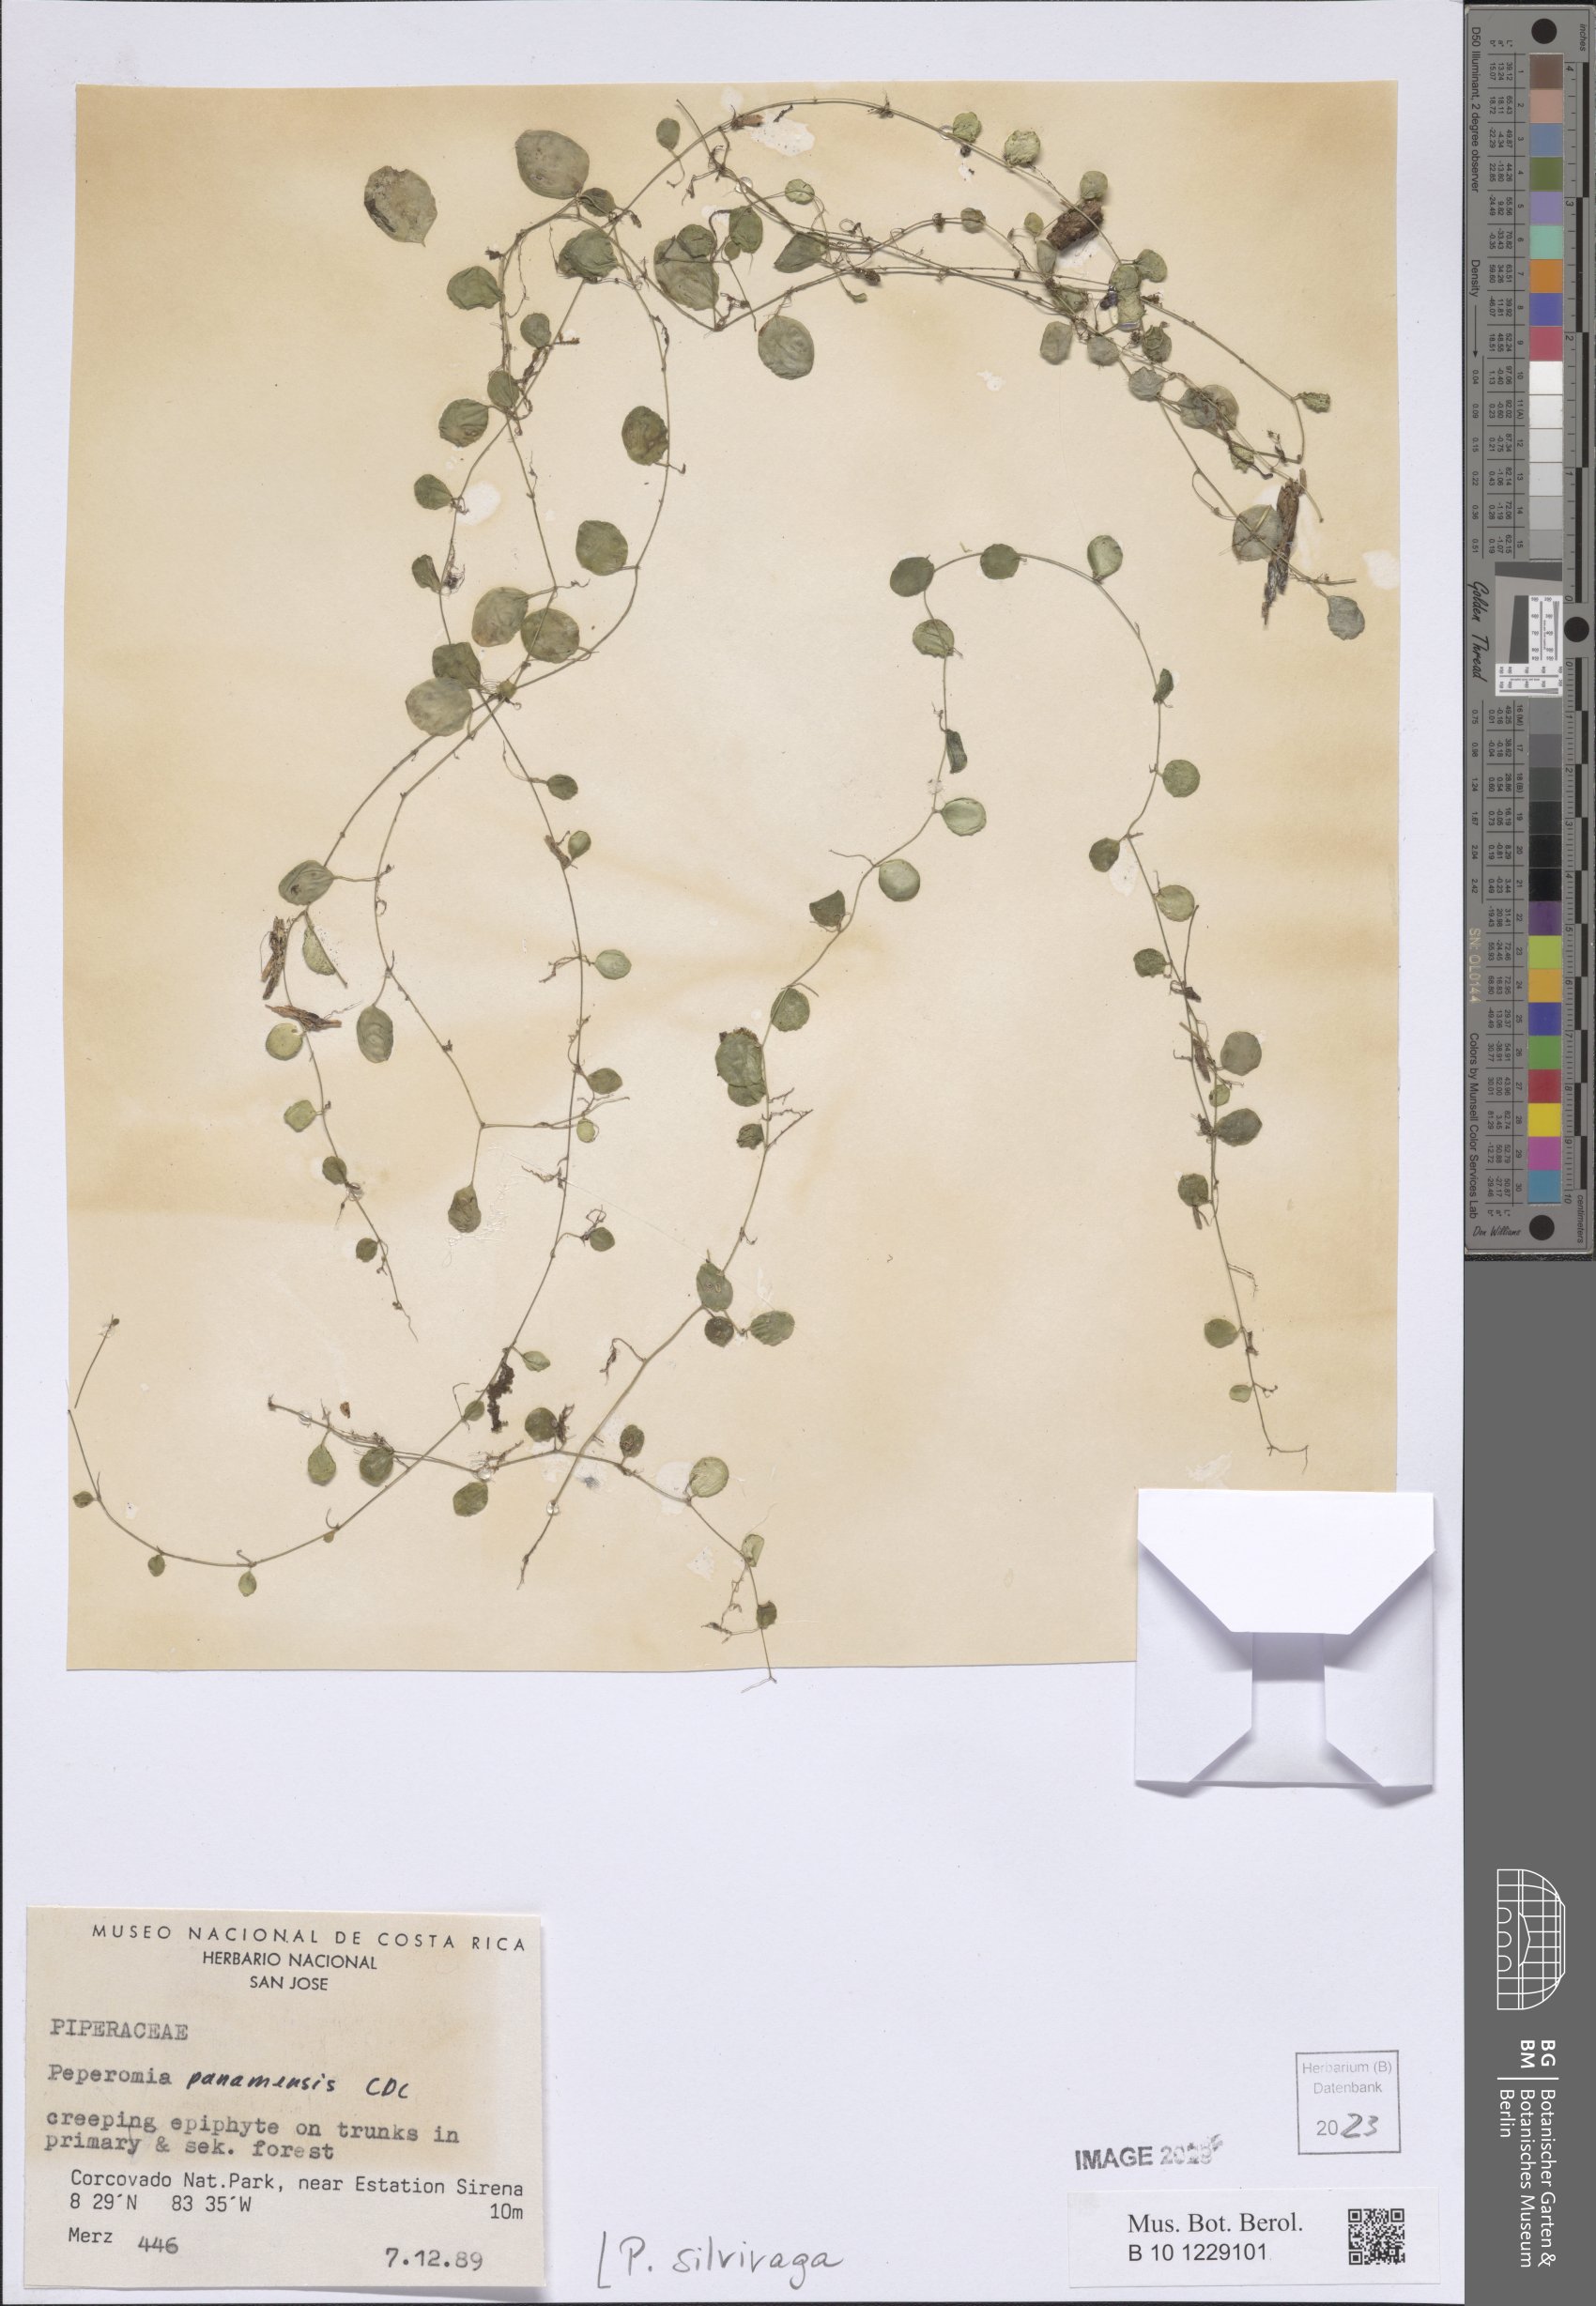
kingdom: Plantae
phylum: Tracheophyta
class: Magnoliopsida
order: Piperales
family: Piperaceae
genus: Peperomia
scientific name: Peperomia silvivaga
